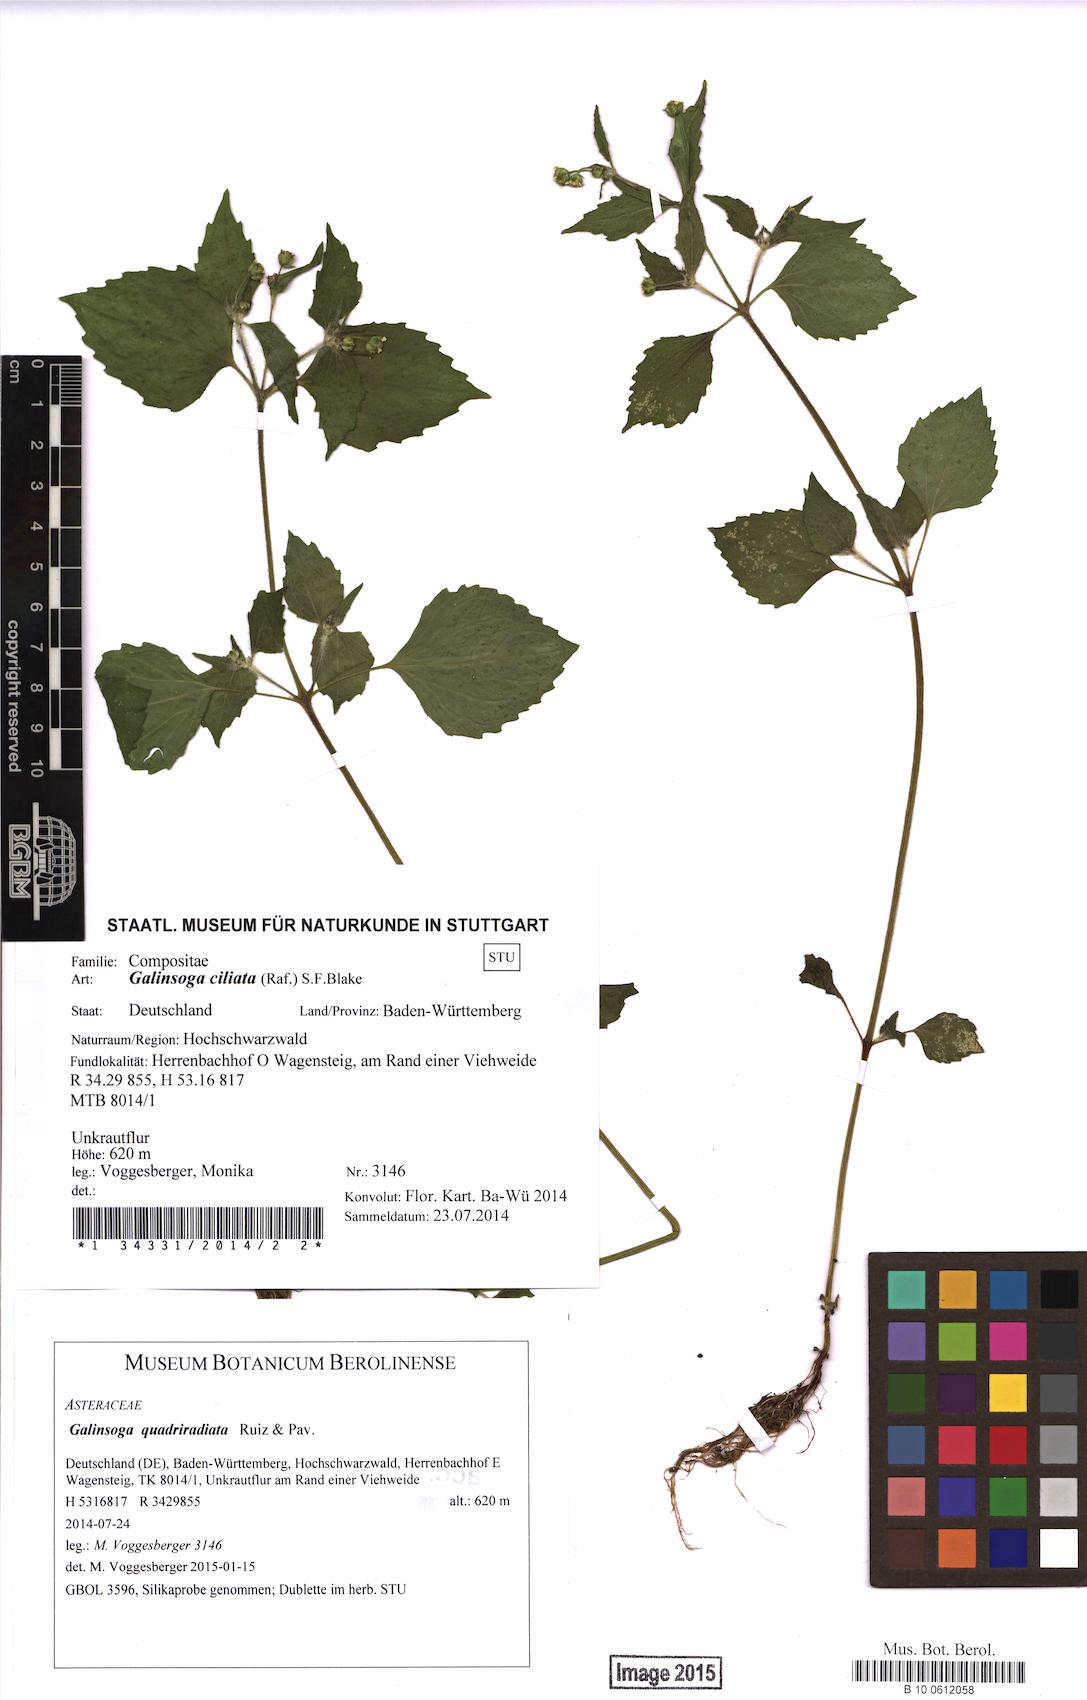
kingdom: Plantae
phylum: Tracheophyta
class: Magnoliopsida
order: Asterales
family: Asteraceae
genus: Galinsoga
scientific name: Galinsoga quadriradiata
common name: Shaggy soldier
